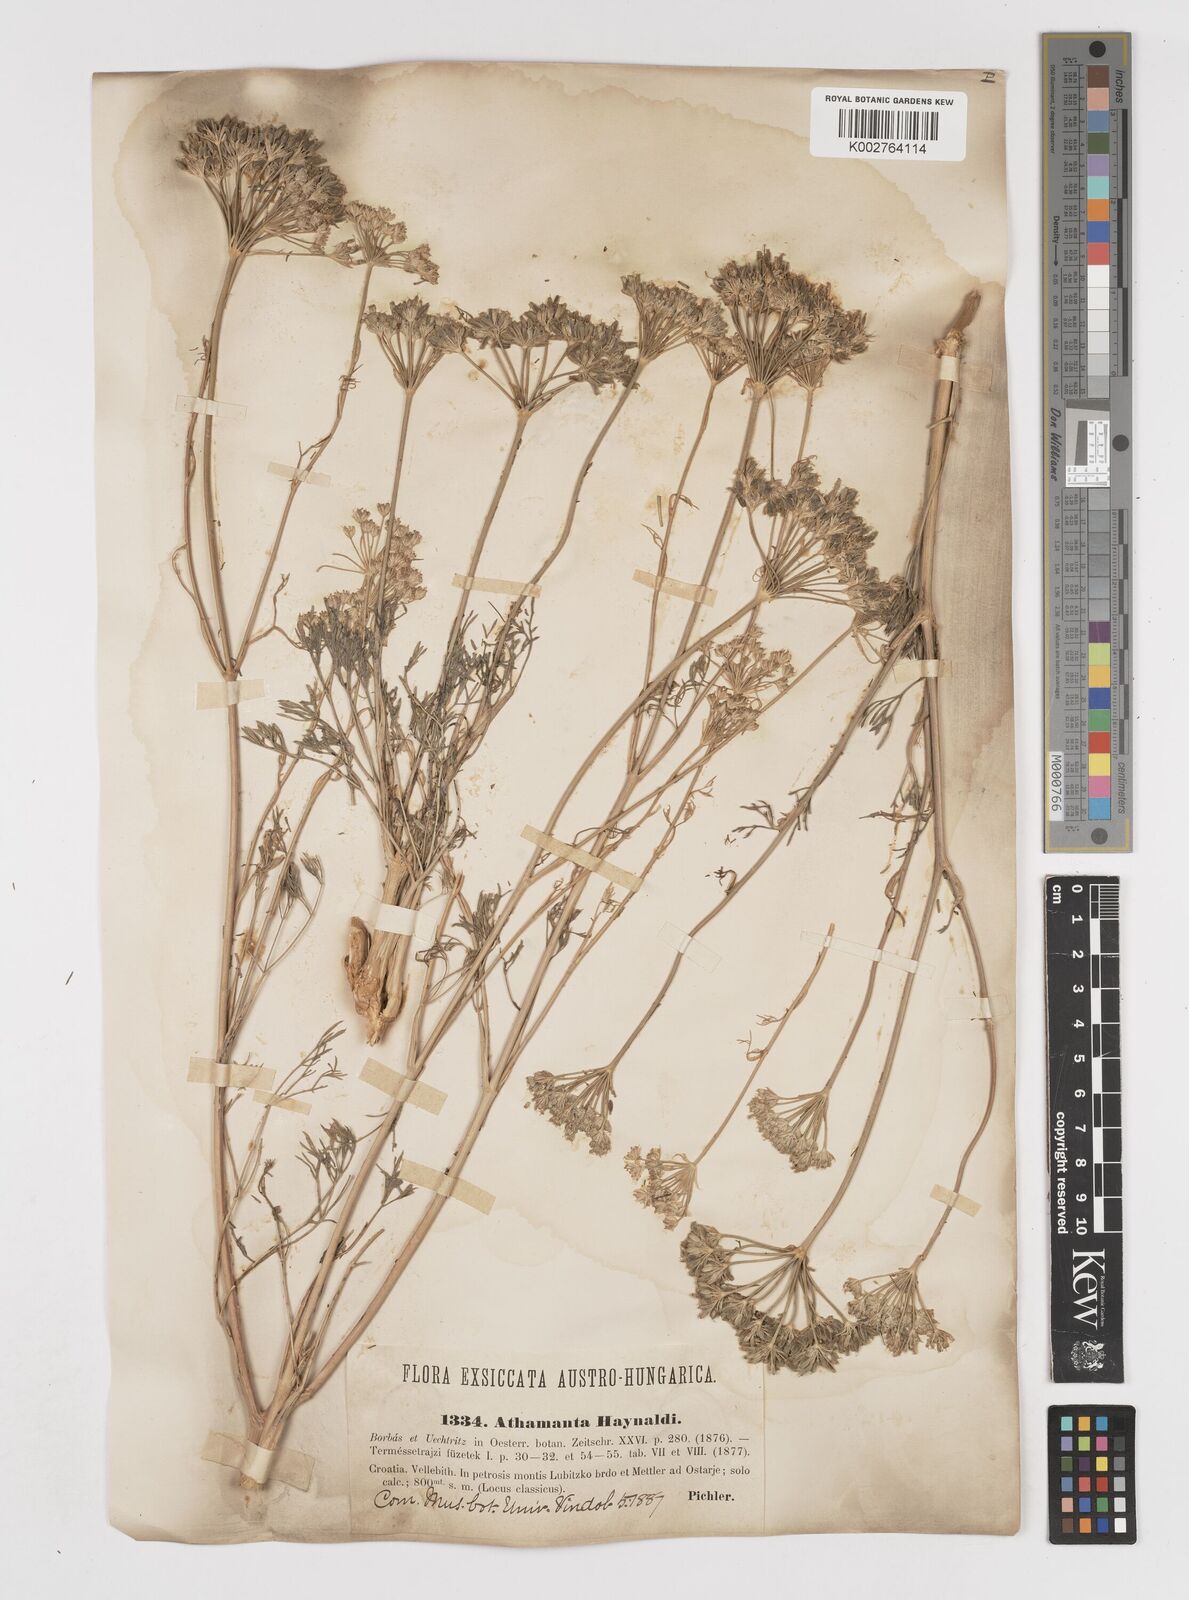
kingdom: Plantae
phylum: Tracheophyta
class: Magnoliopsida
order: Apiales
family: Apiaceae
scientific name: Apiaceae
